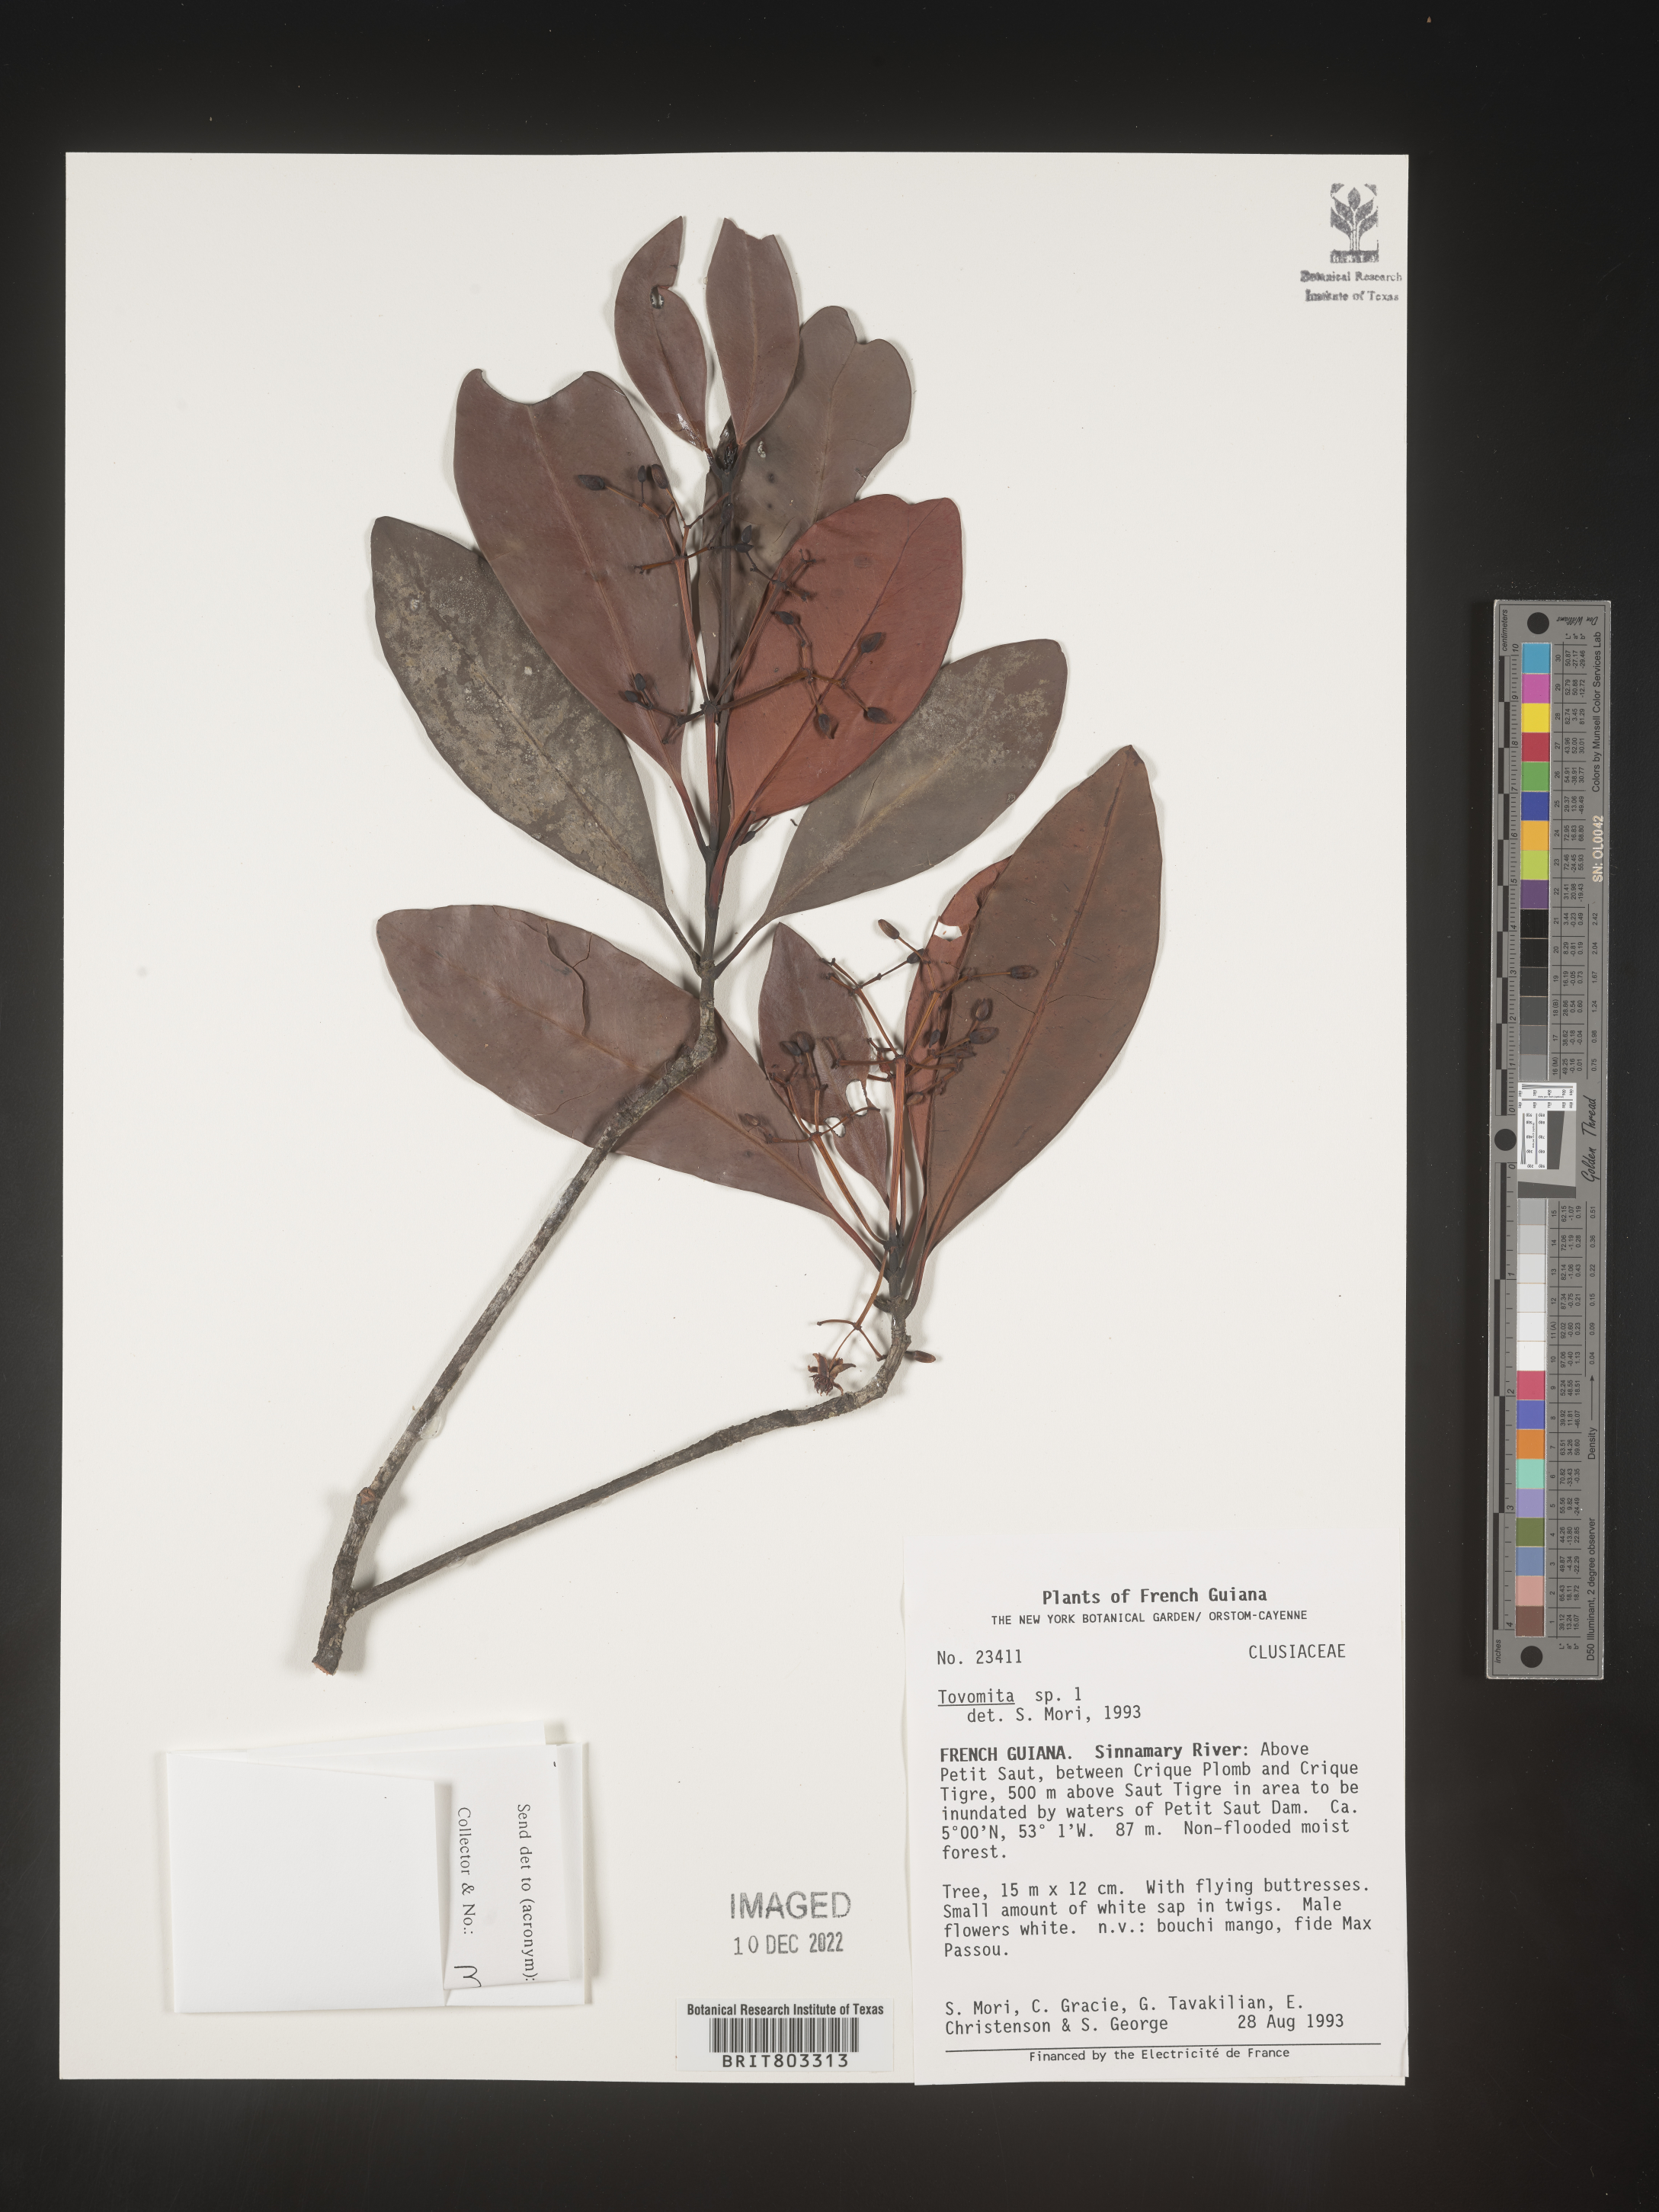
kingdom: Plantae
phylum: Tracheophyta
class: Magnoliopsida
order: Malpighiales
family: Clusiaceae
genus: Tovomita
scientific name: Tovomita
